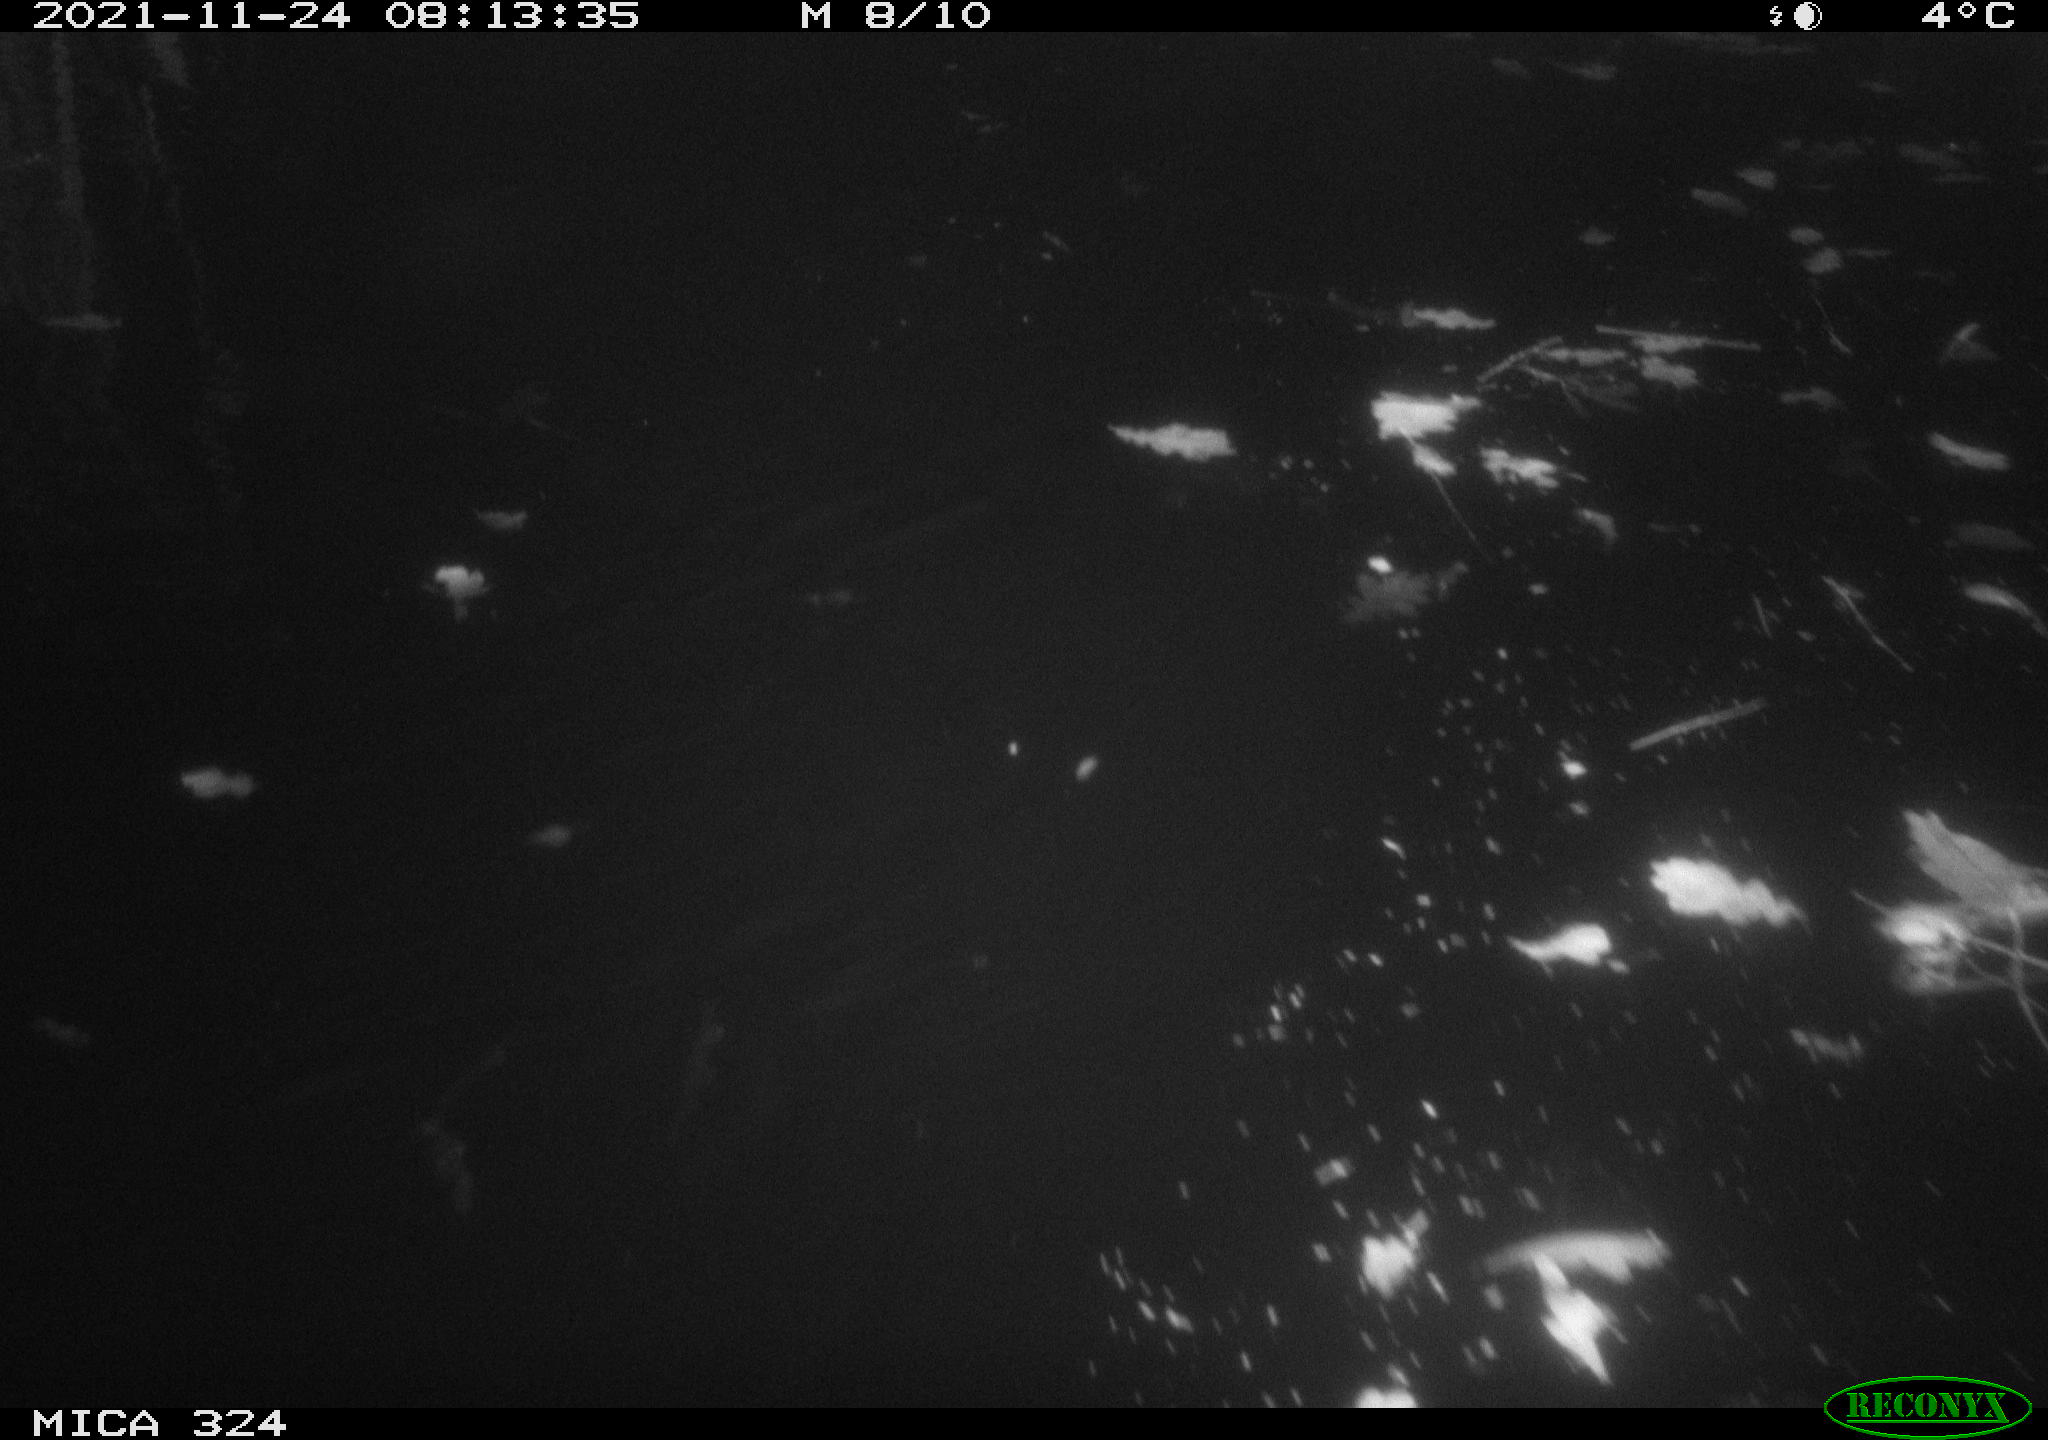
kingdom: Animalia
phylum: Chordata
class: Mammalia
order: Rodentia
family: Cricetidae
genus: Ondatra
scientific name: Ondatra zibethicus
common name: Muskrat
